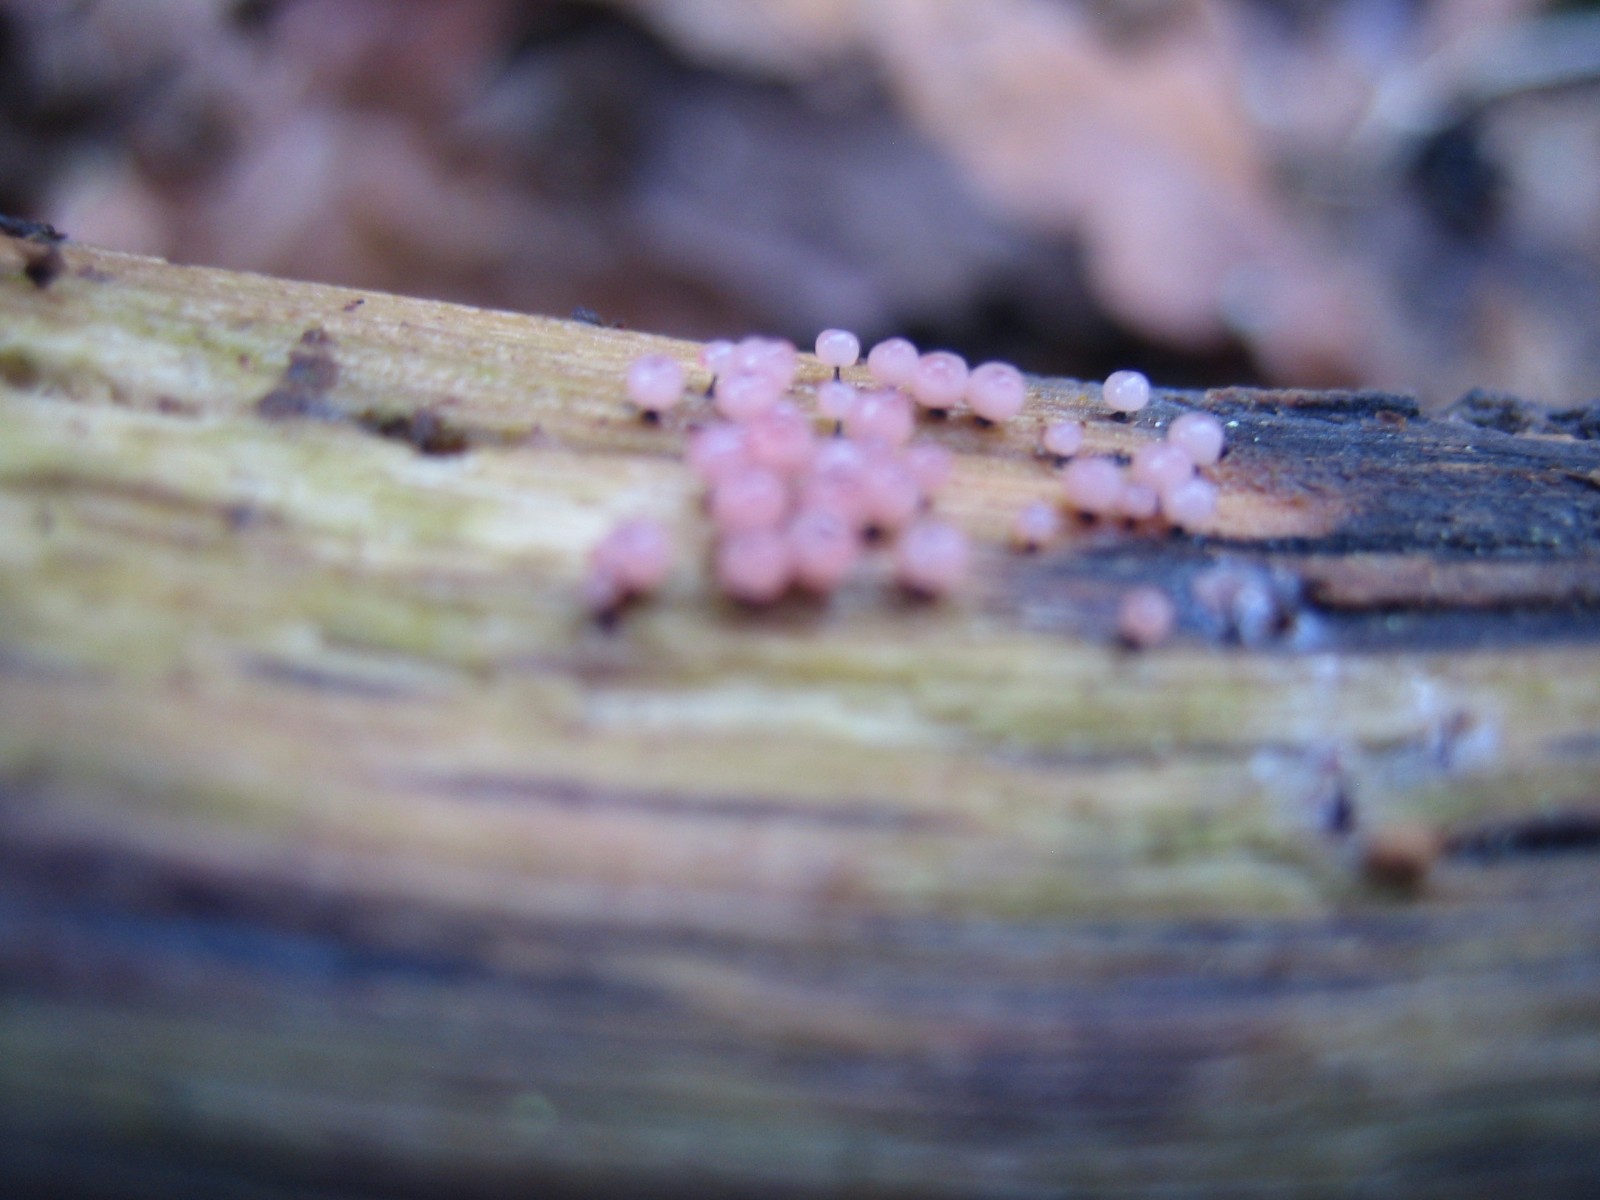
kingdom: Protozoa
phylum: Mycetozoa
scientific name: Mycetozoa
